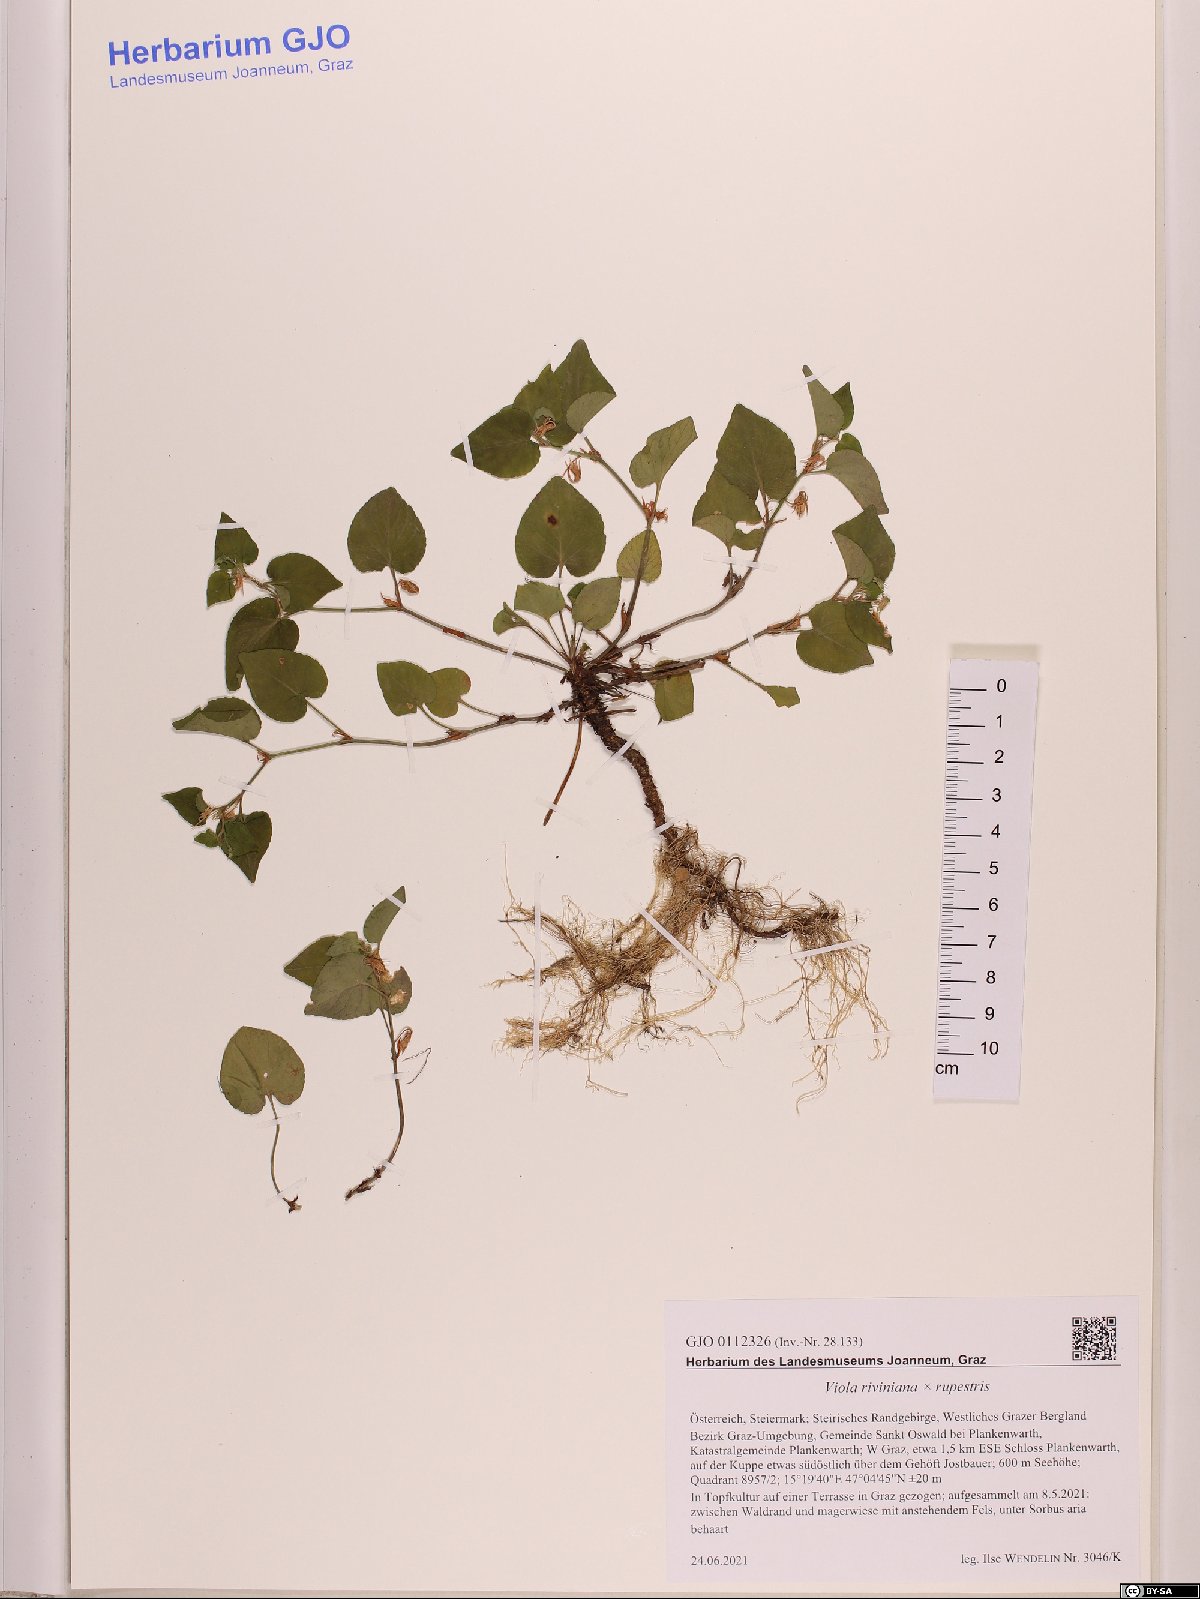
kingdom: Plantae
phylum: Tracheophyta
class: Magnoliopsida
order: Malpighiales
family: Violaceae
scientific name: Violaceae
